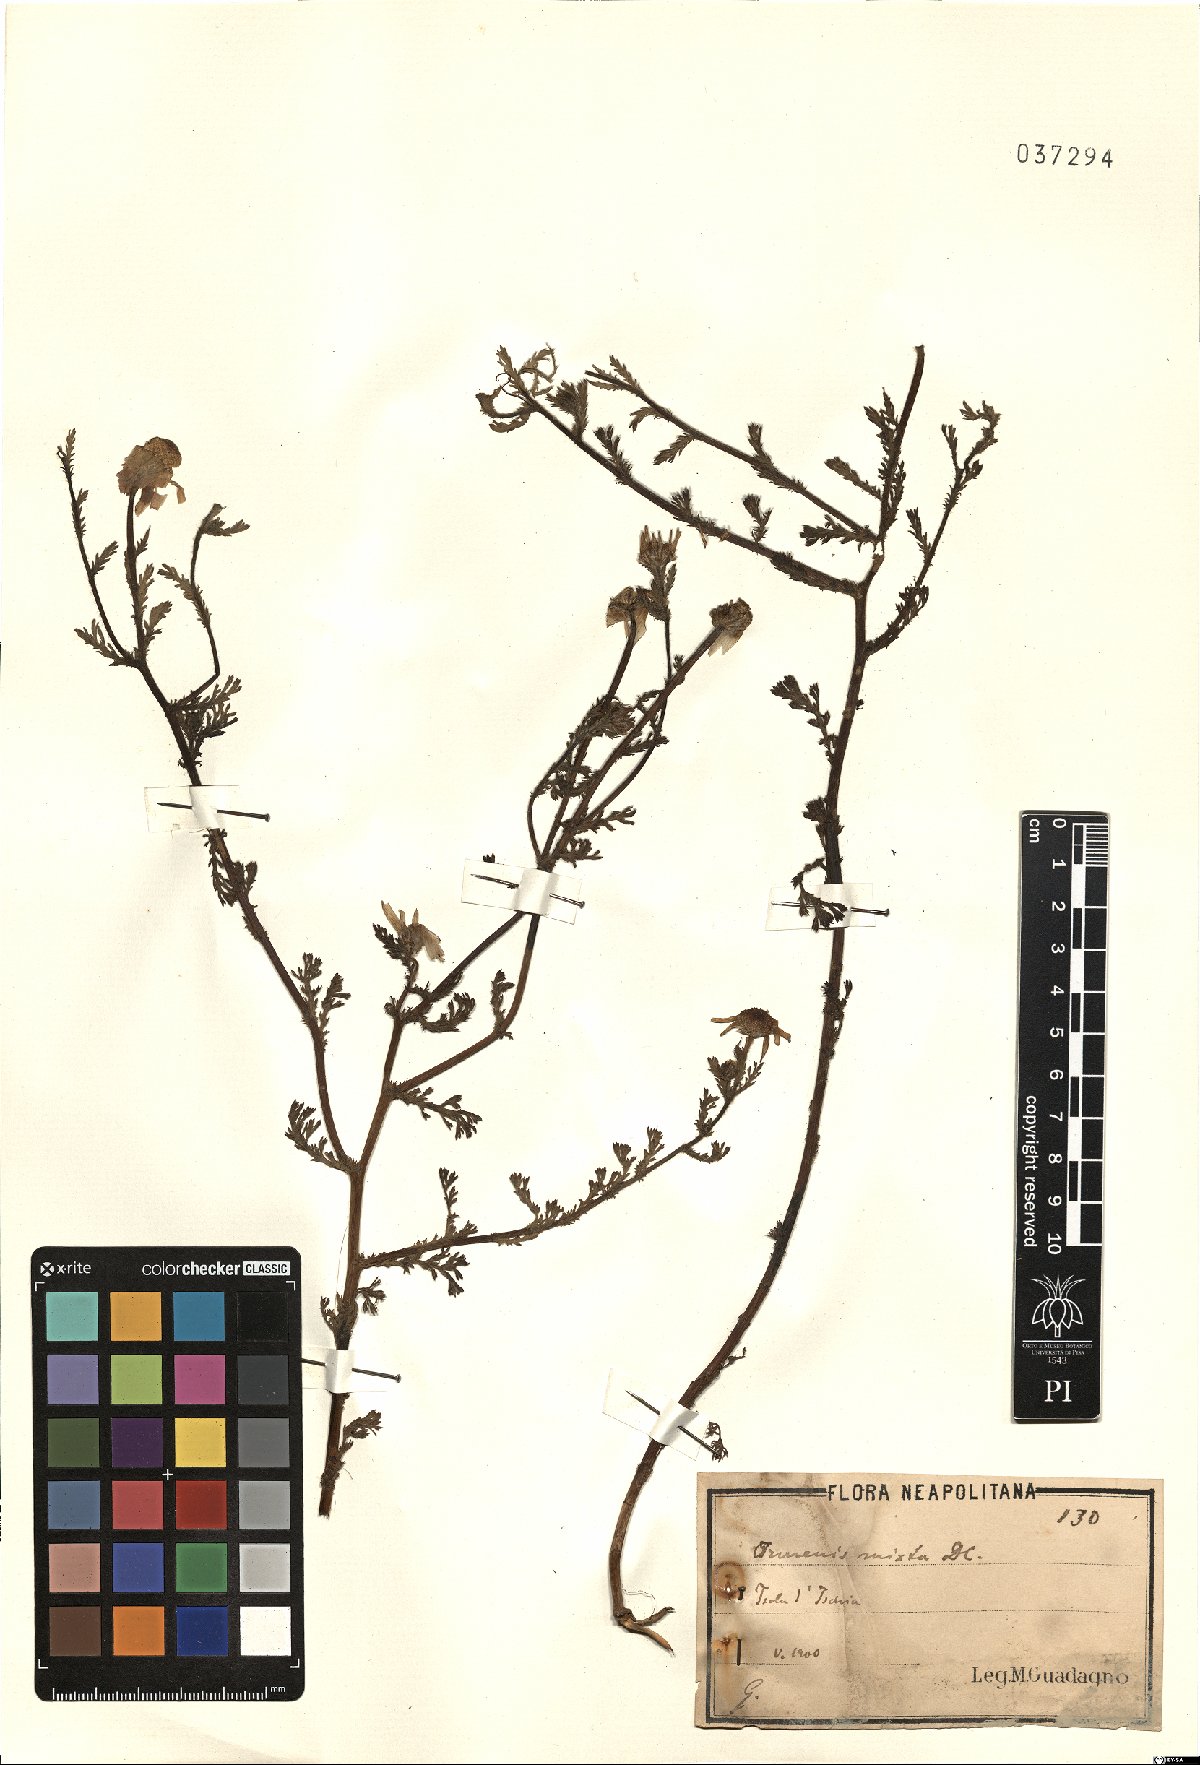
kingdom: Plantae
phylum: Tracheophyta
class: Magnoliopsida
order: Asterales
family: Asteraceae
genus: Cladanthus
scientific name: Cladanthus mixtus
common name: Weedy dogfennel
